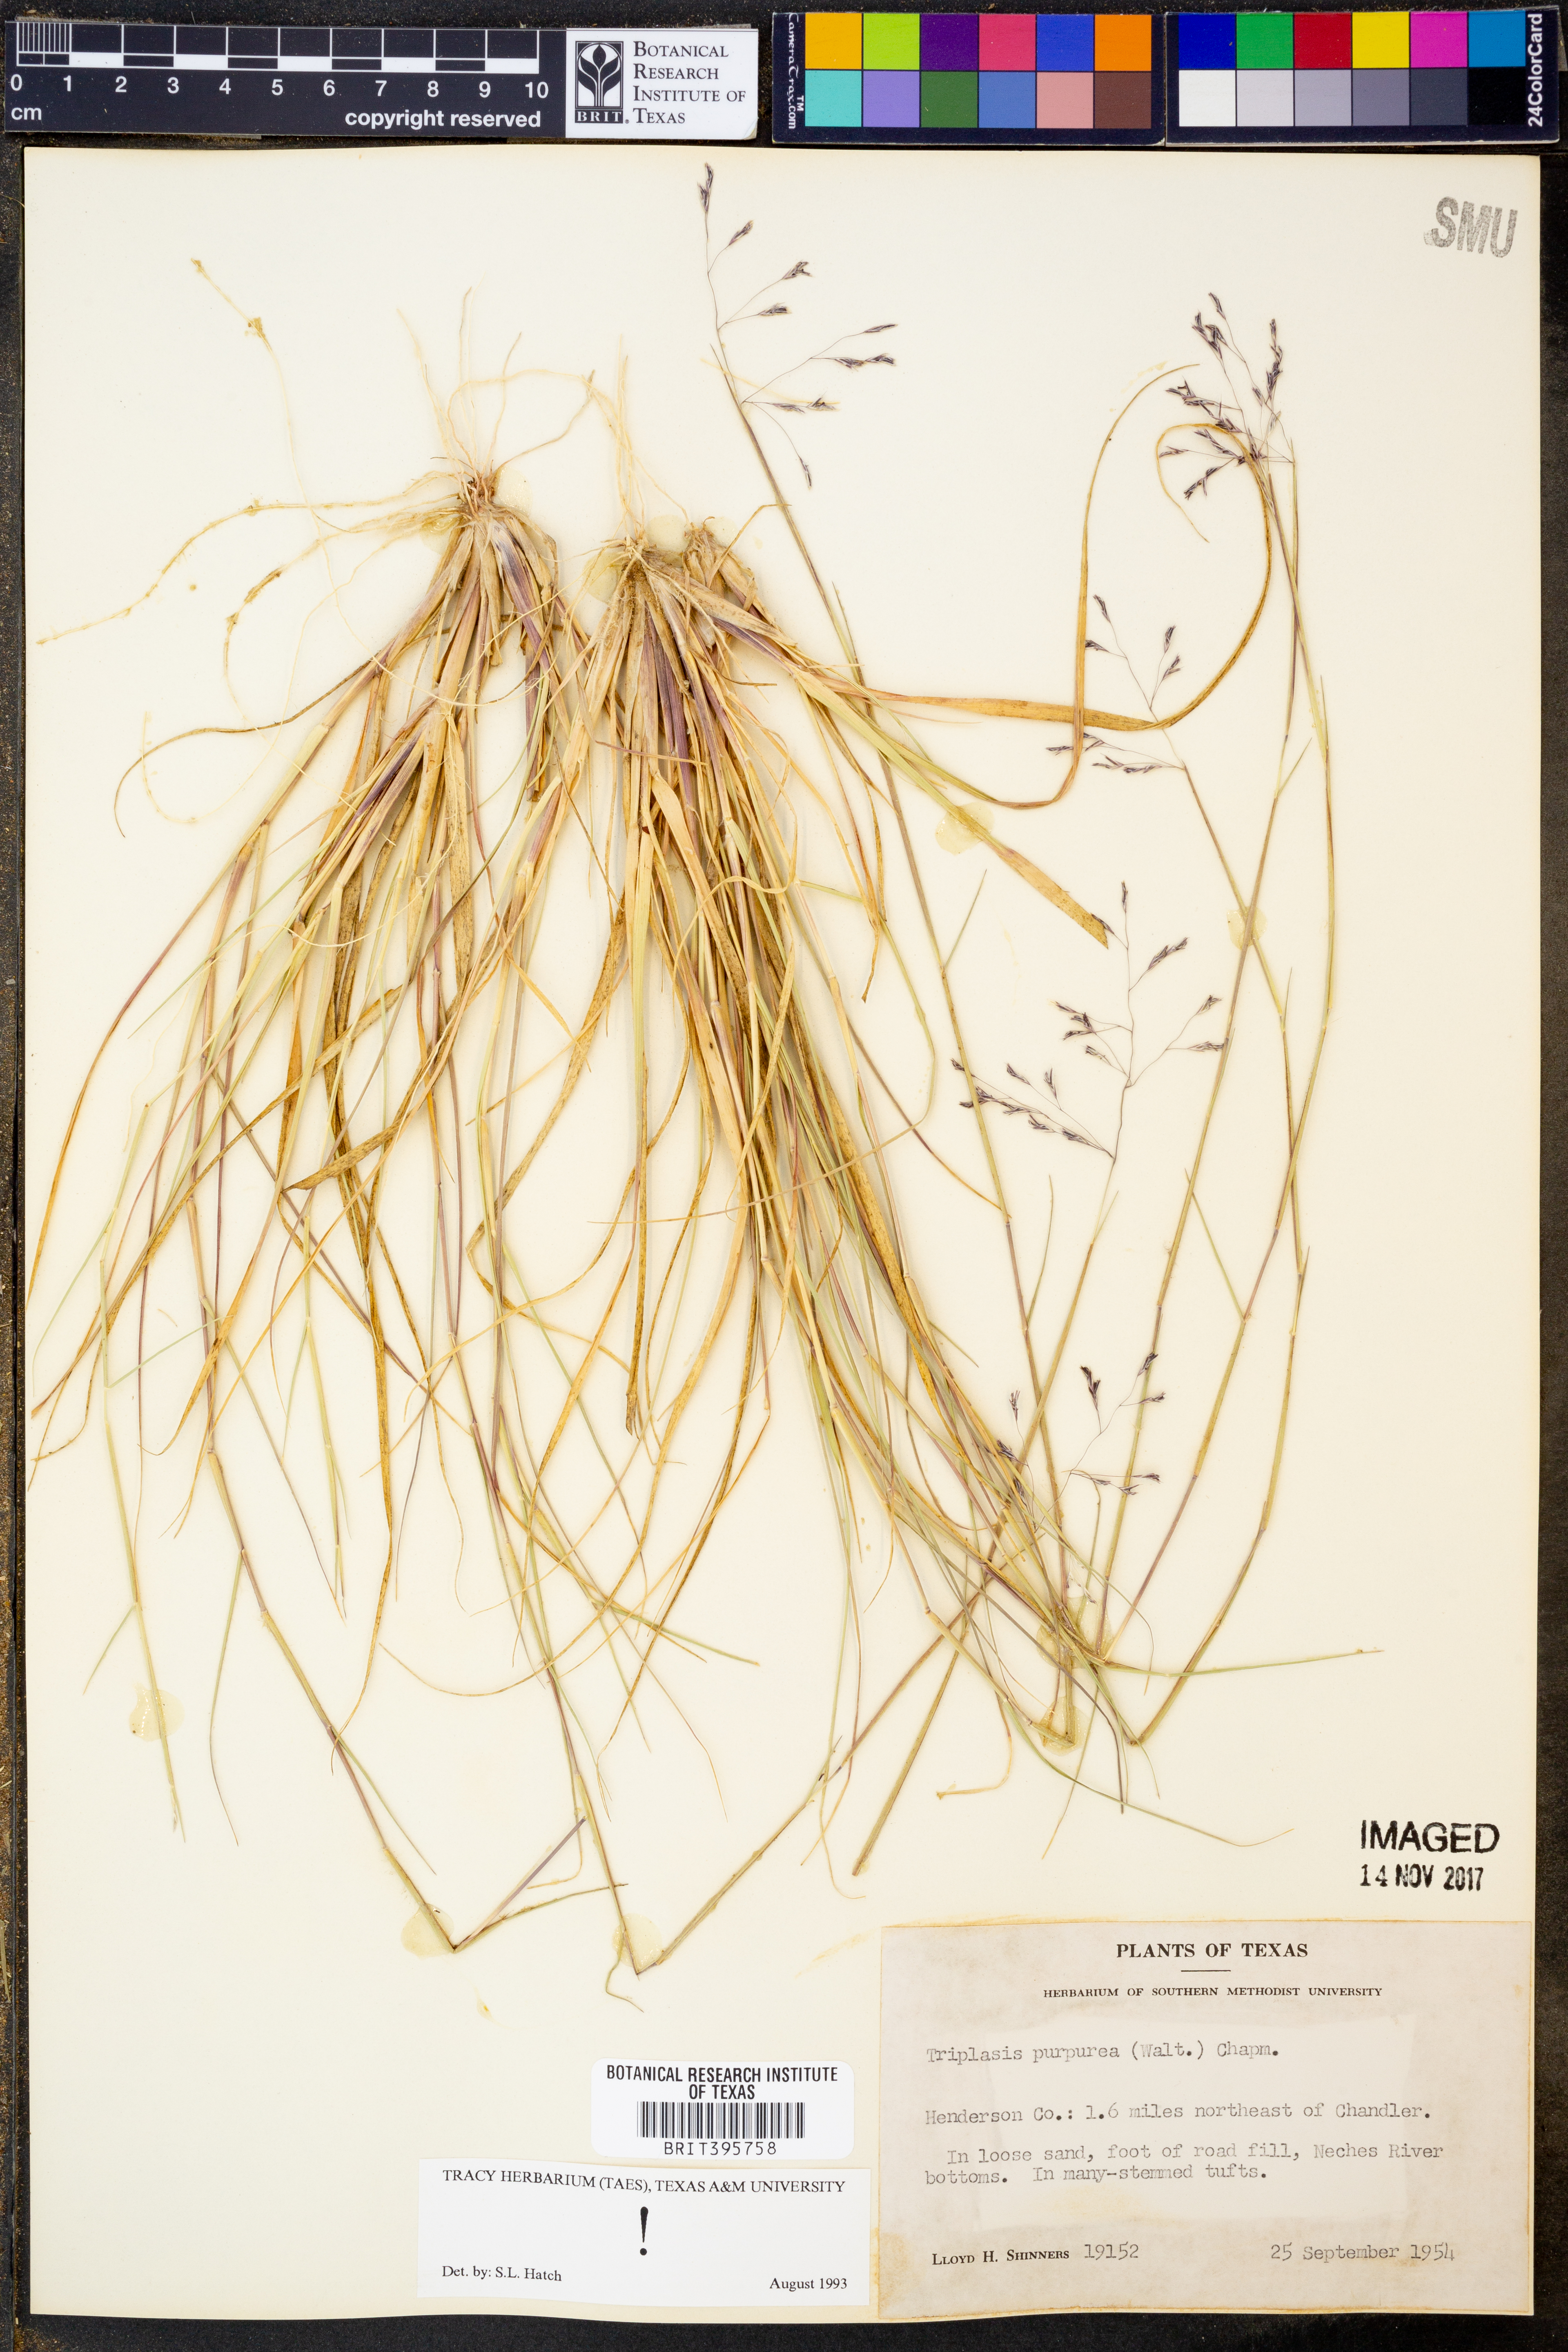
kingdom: Plantae
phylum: Tracheophyta
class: Liliopsida
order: Poales
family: Poaceae
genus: Triplasis
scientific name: Triplasis purpurea
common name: Purple sand grass
